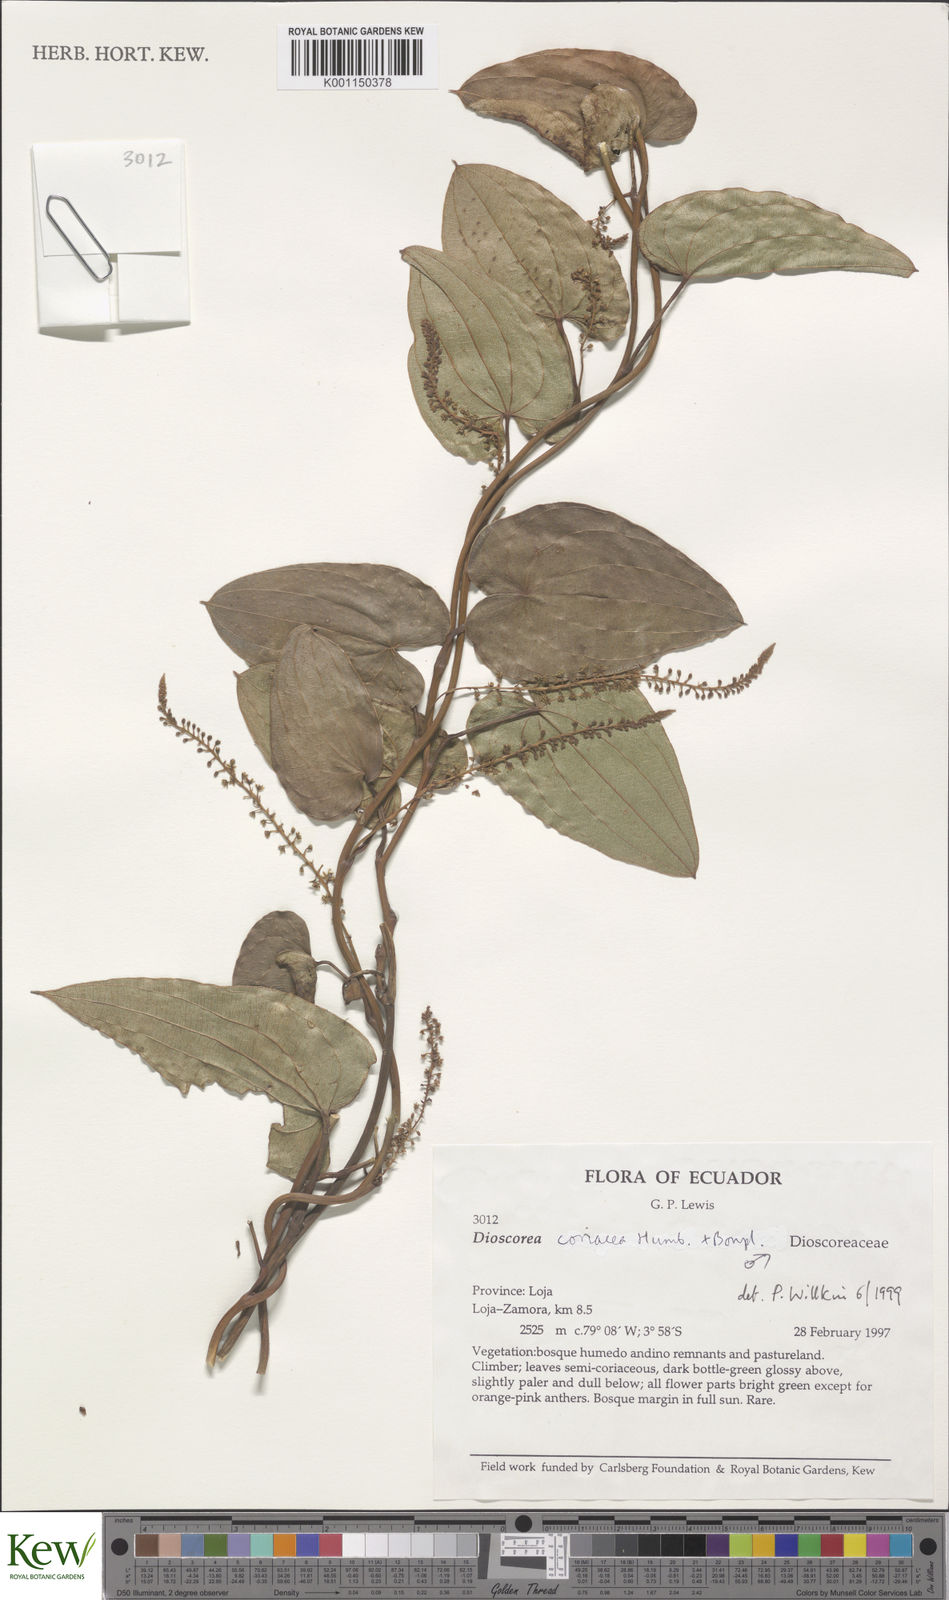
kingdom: Plantae
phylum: Tracheophyta
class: Liliopsida
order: Dioscoreales
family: Dioscoreaceae
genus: Dioscorea
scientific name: Dioscorea coriacea
